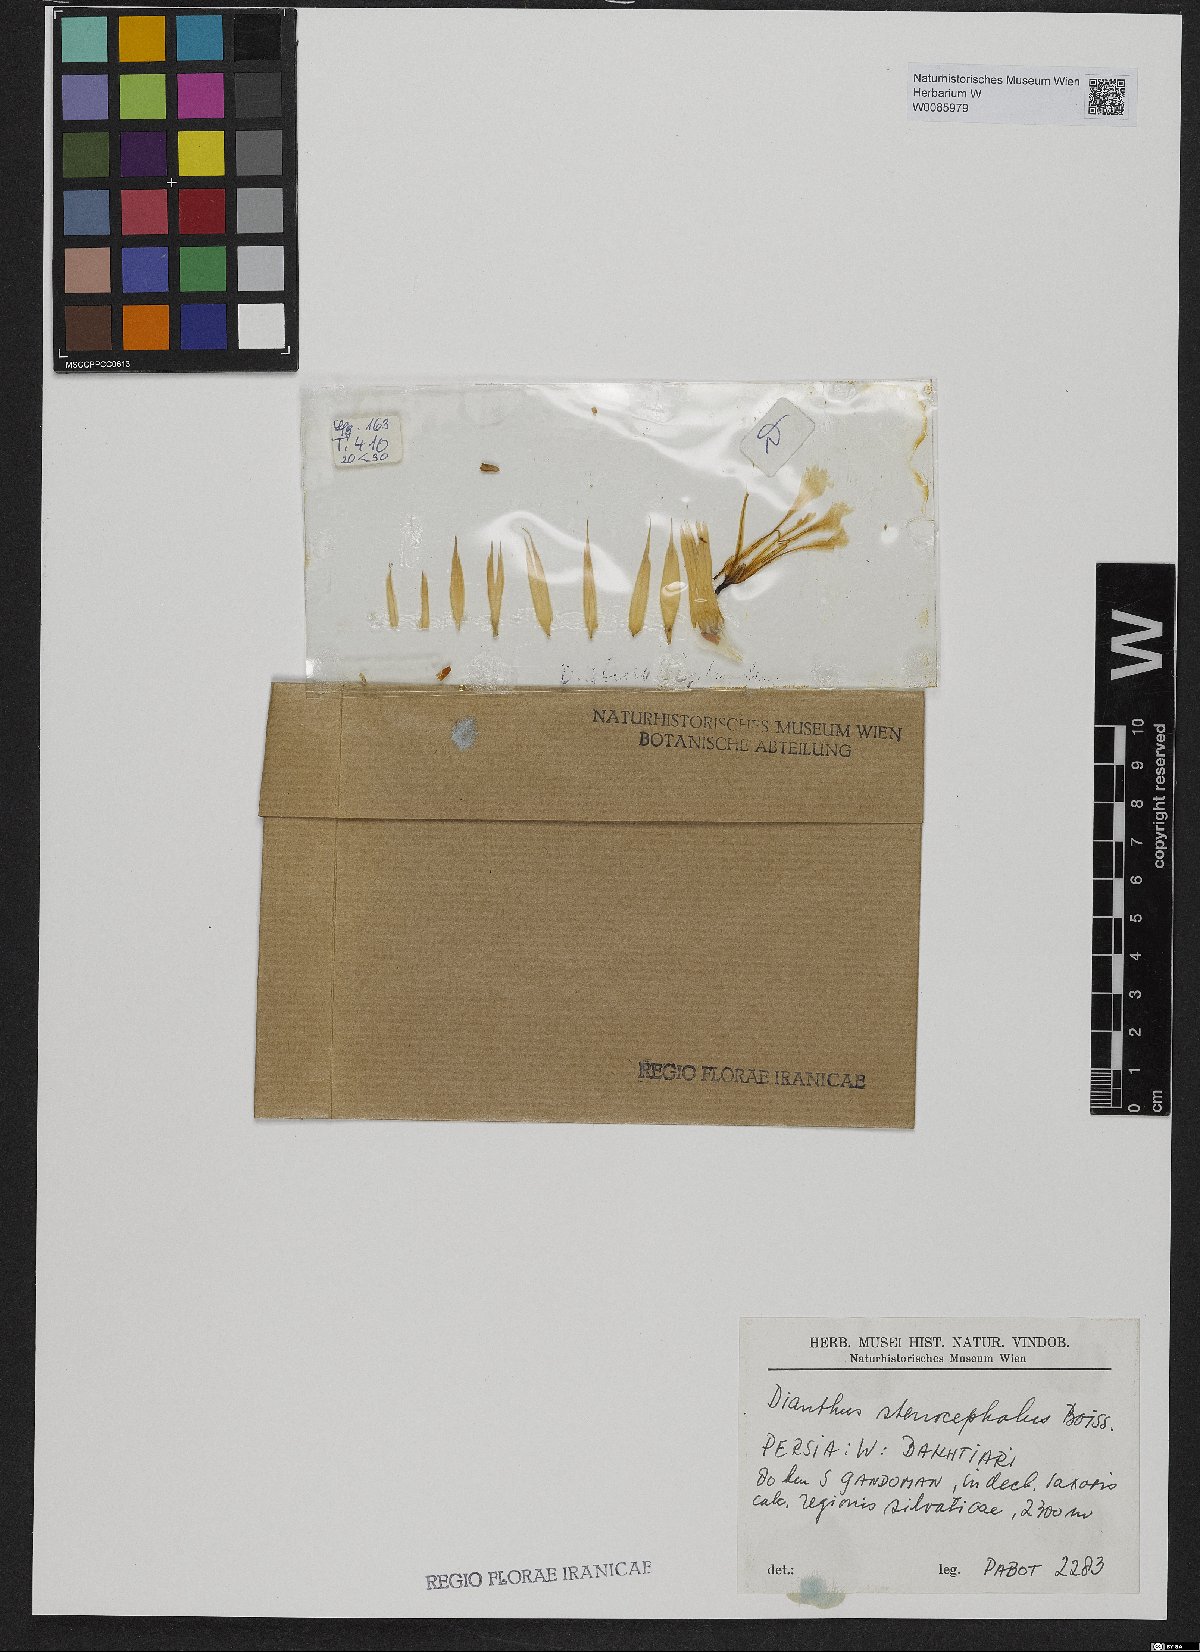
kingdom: Plantae
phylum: Tracheophyta
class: Magnoliopsida
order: Caryophyllales
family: Caryophyllaceae
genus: Dianthus
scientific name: Dianthus stenocephalus
